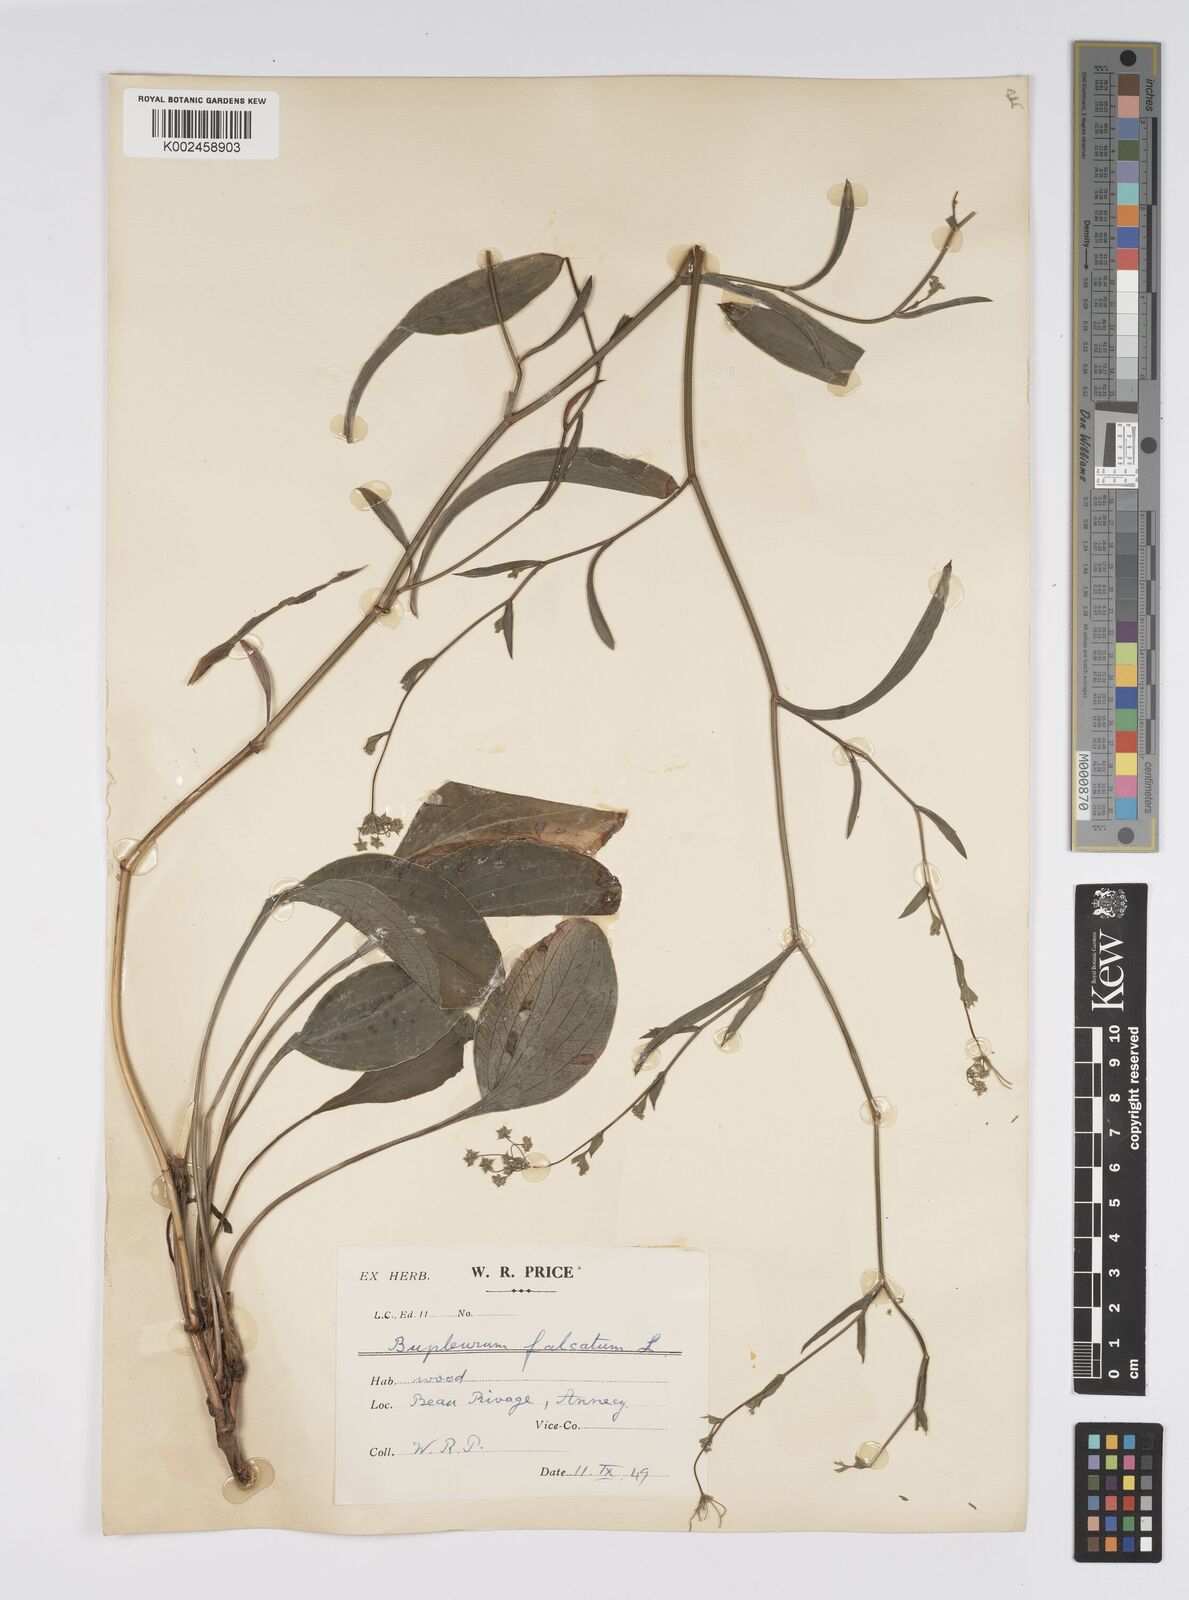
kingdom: Plantae
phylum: Tracheophyta
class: Magnoliopsida
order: Apiales
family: Apiaceae
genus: Bupleurum
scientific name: Bupleurum falcatum
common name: Sickle-leaved hare's-ear
